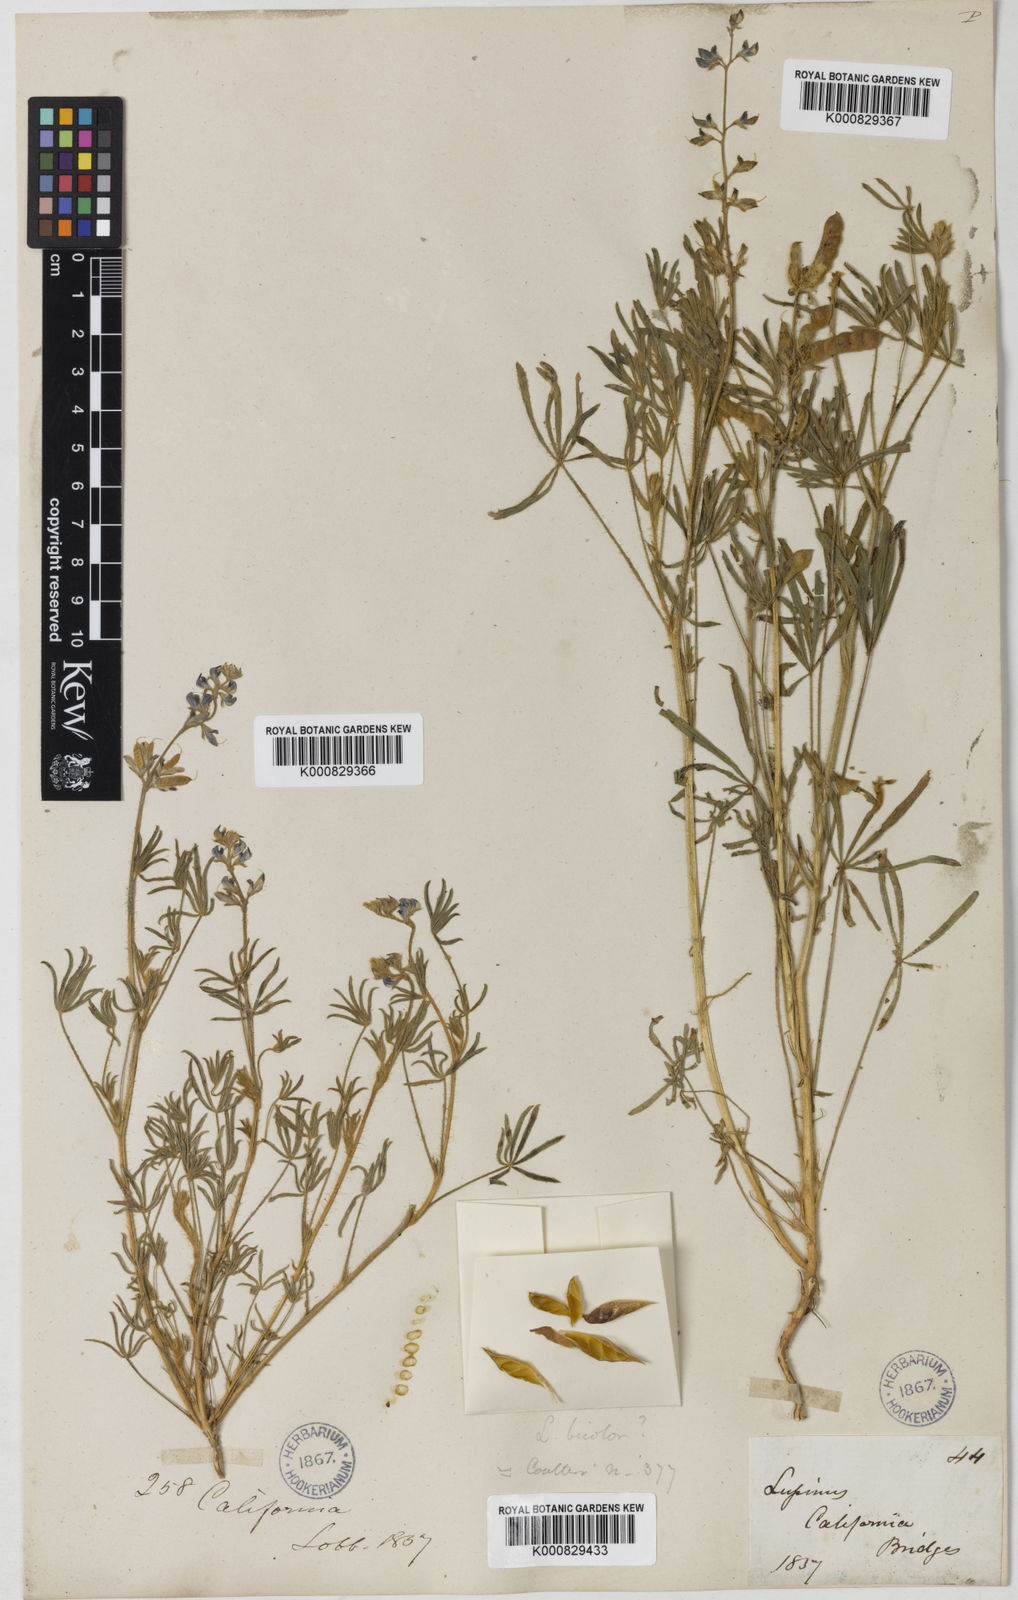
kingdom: Plantae
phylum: Tracheophyta
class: Magnoliopsida
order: Fabales
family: Fabaceae
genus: Lupinus
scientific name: Lupinus bicolor
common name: Miniature lupine
